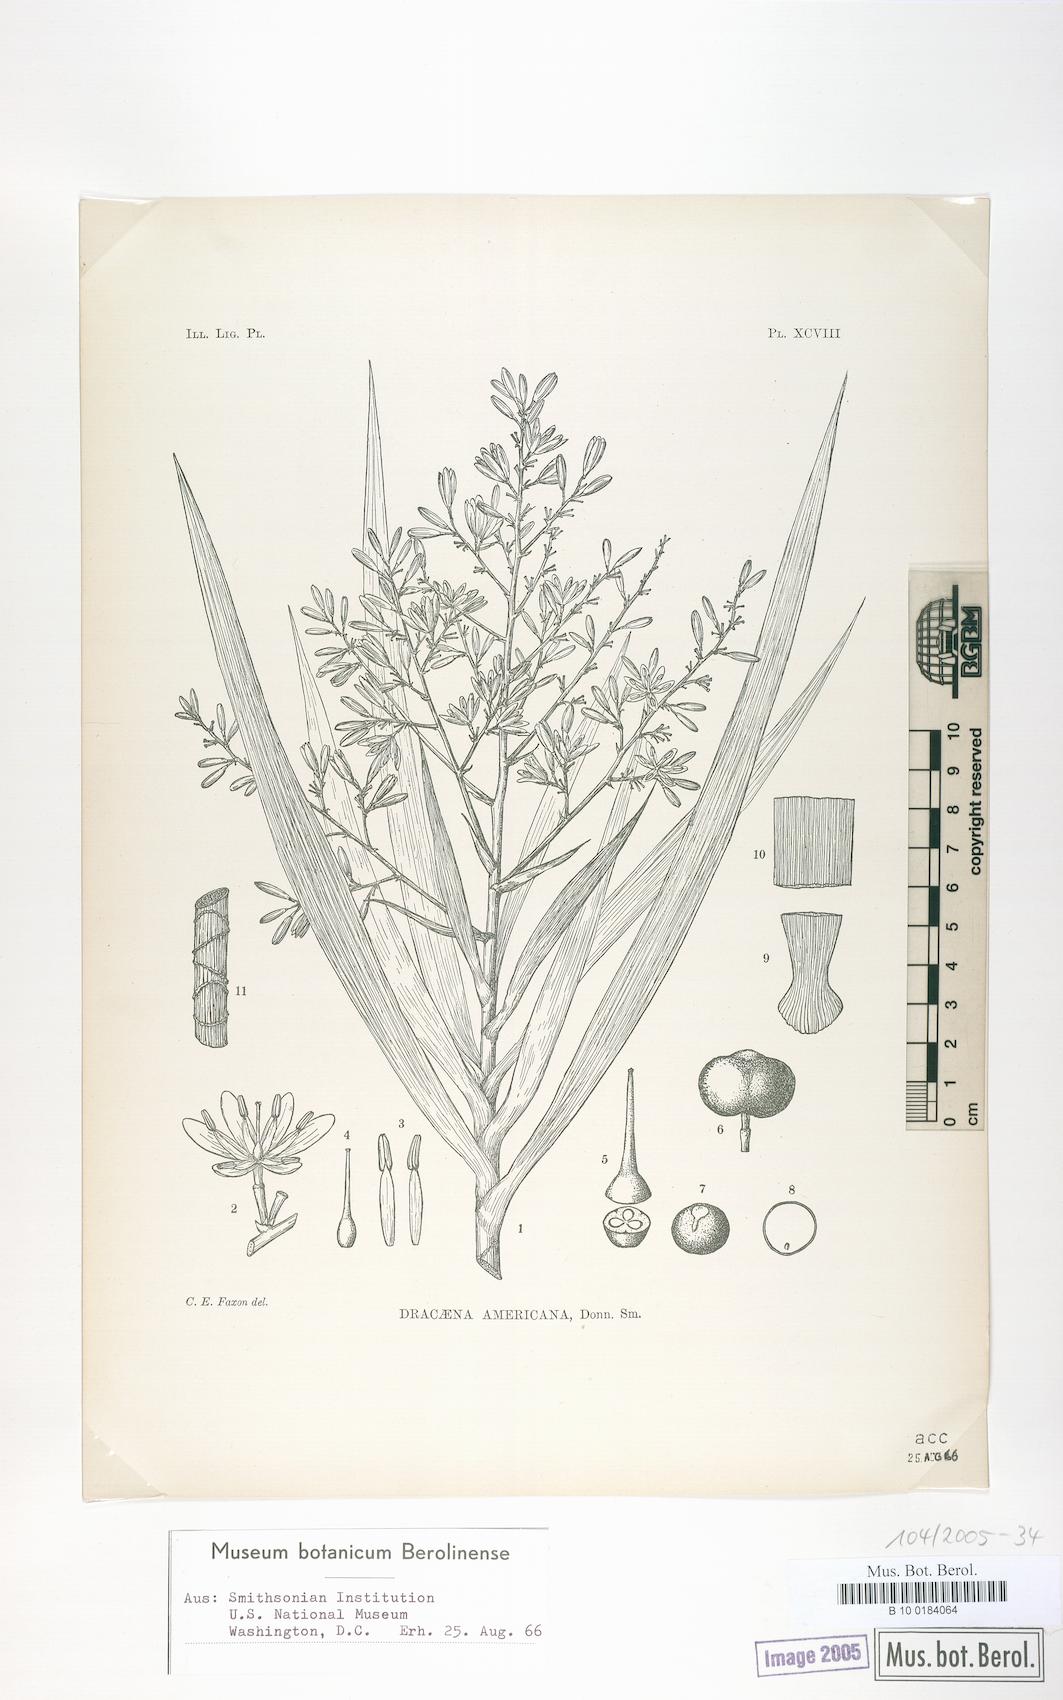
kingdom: Plantae
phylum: Tracheophyta
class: Liliopsida
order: Asparagales
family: Asparagaceae
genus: Dracaena
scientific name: Dracaena ghiesbreghtii
